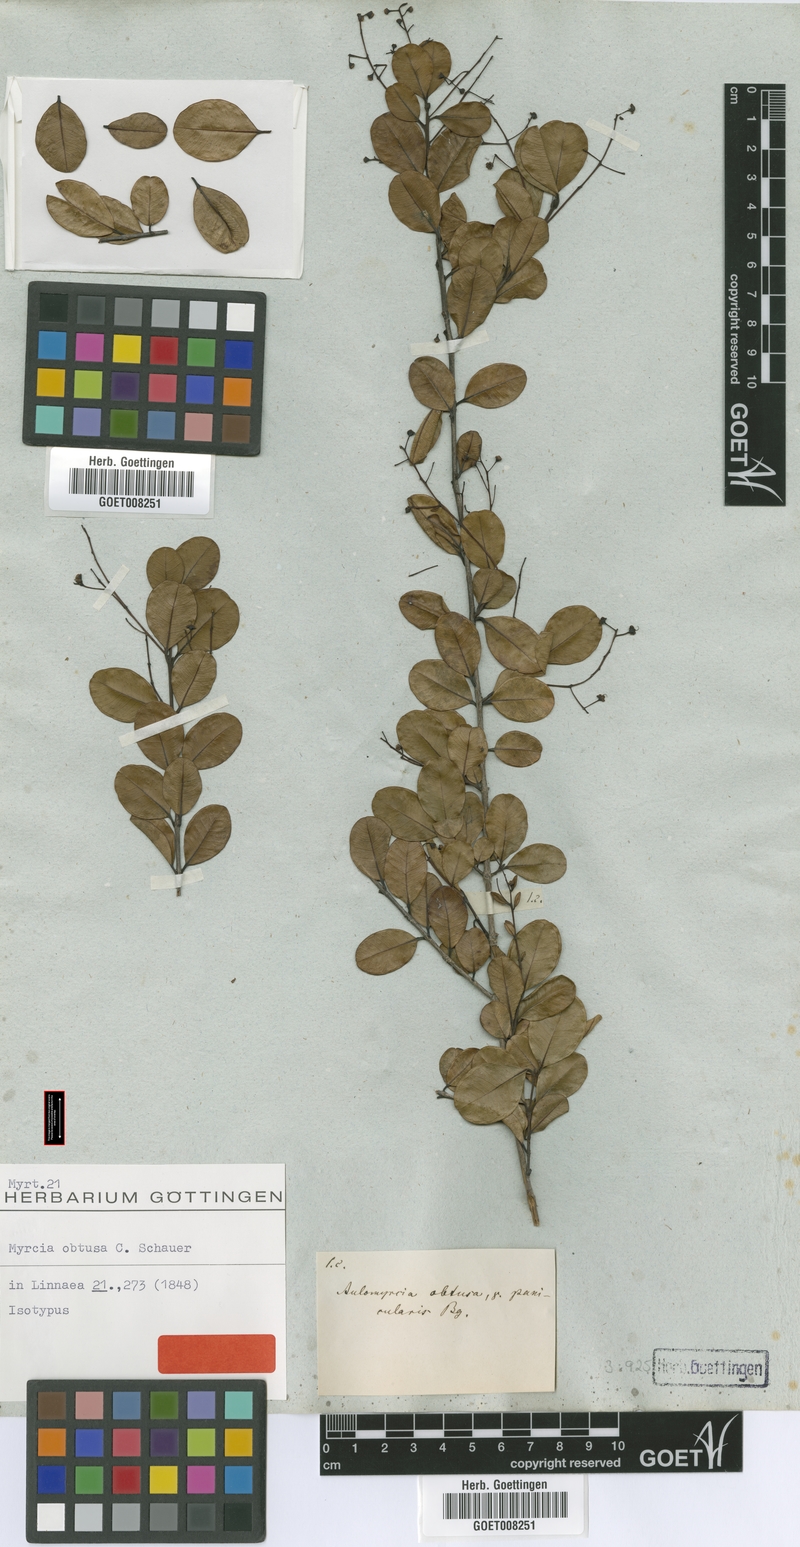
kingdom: Plantae
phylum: Tracheophyta
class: Magnoliopsida
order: Myrtales
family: Myrtaceae
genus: Myrcia
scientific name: Myrcia guianensis
